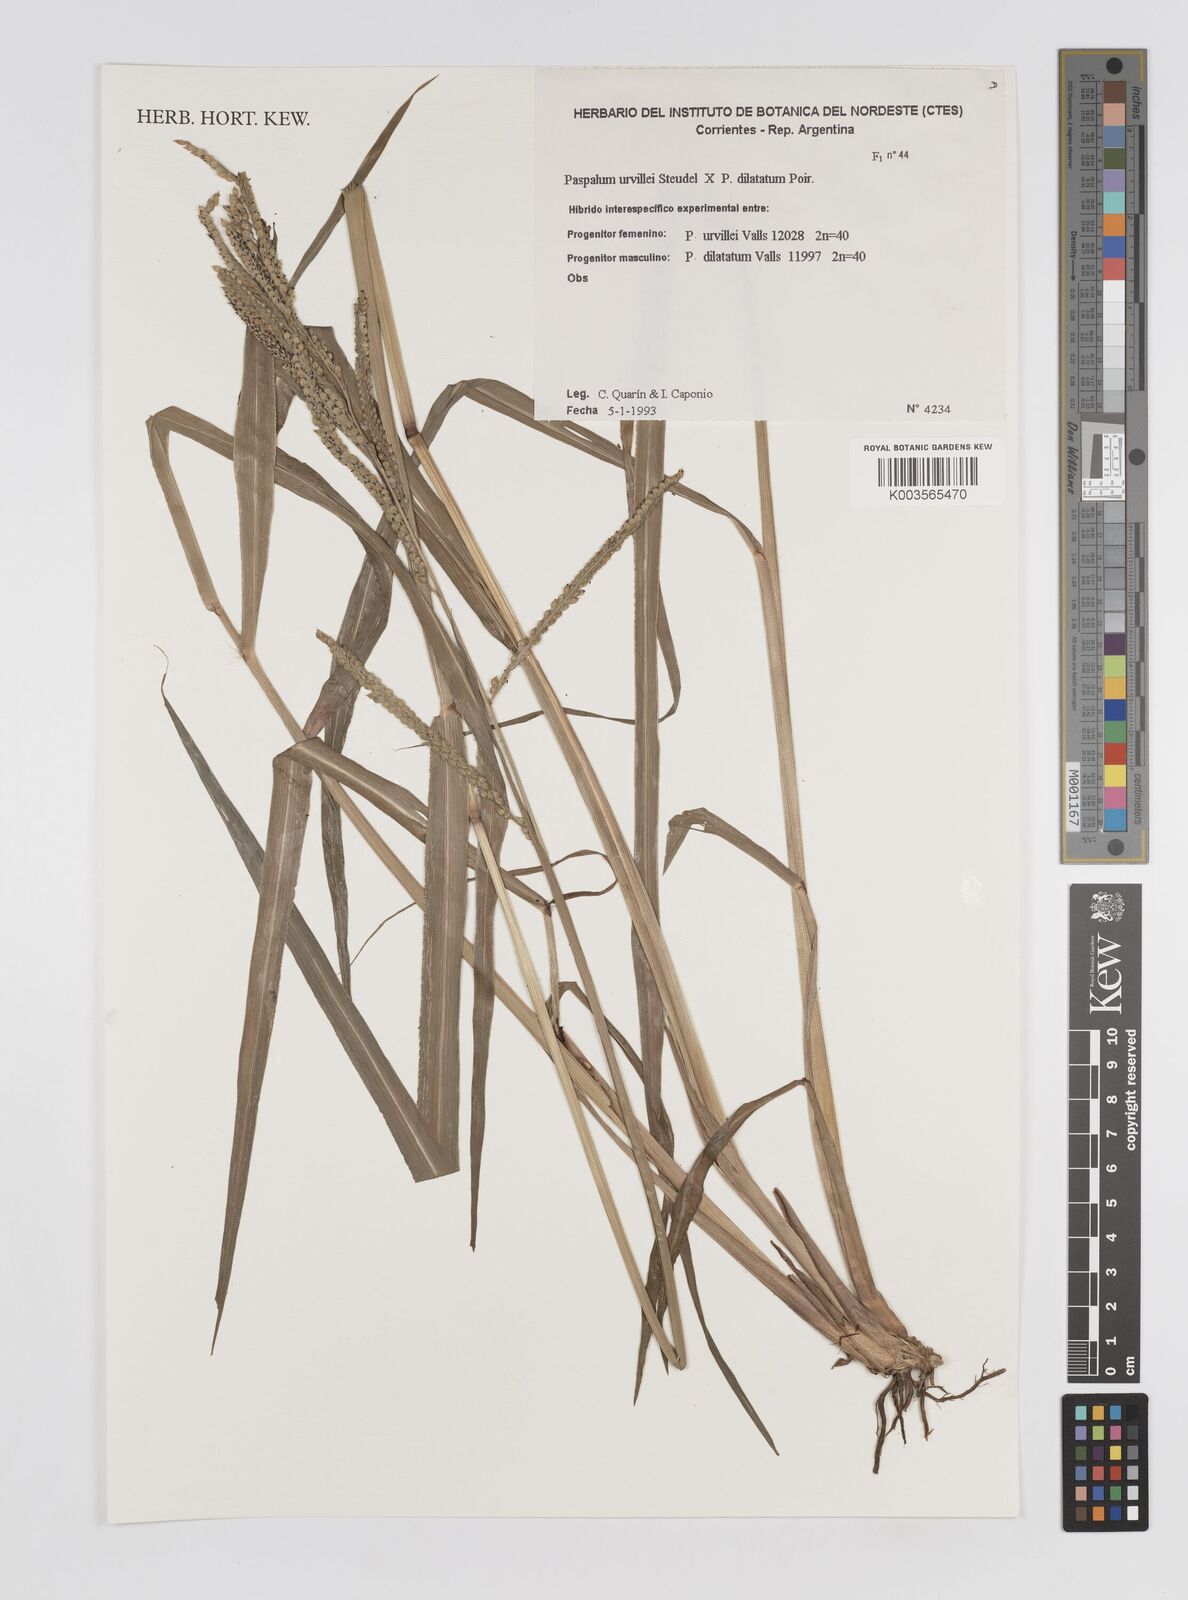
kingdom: Plantae
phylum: Tracheophyta
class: Liliopsida
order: Poales
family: Poaceae
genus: Paspalum
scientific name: Paspalum dilatatum
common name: Dallisgrass
